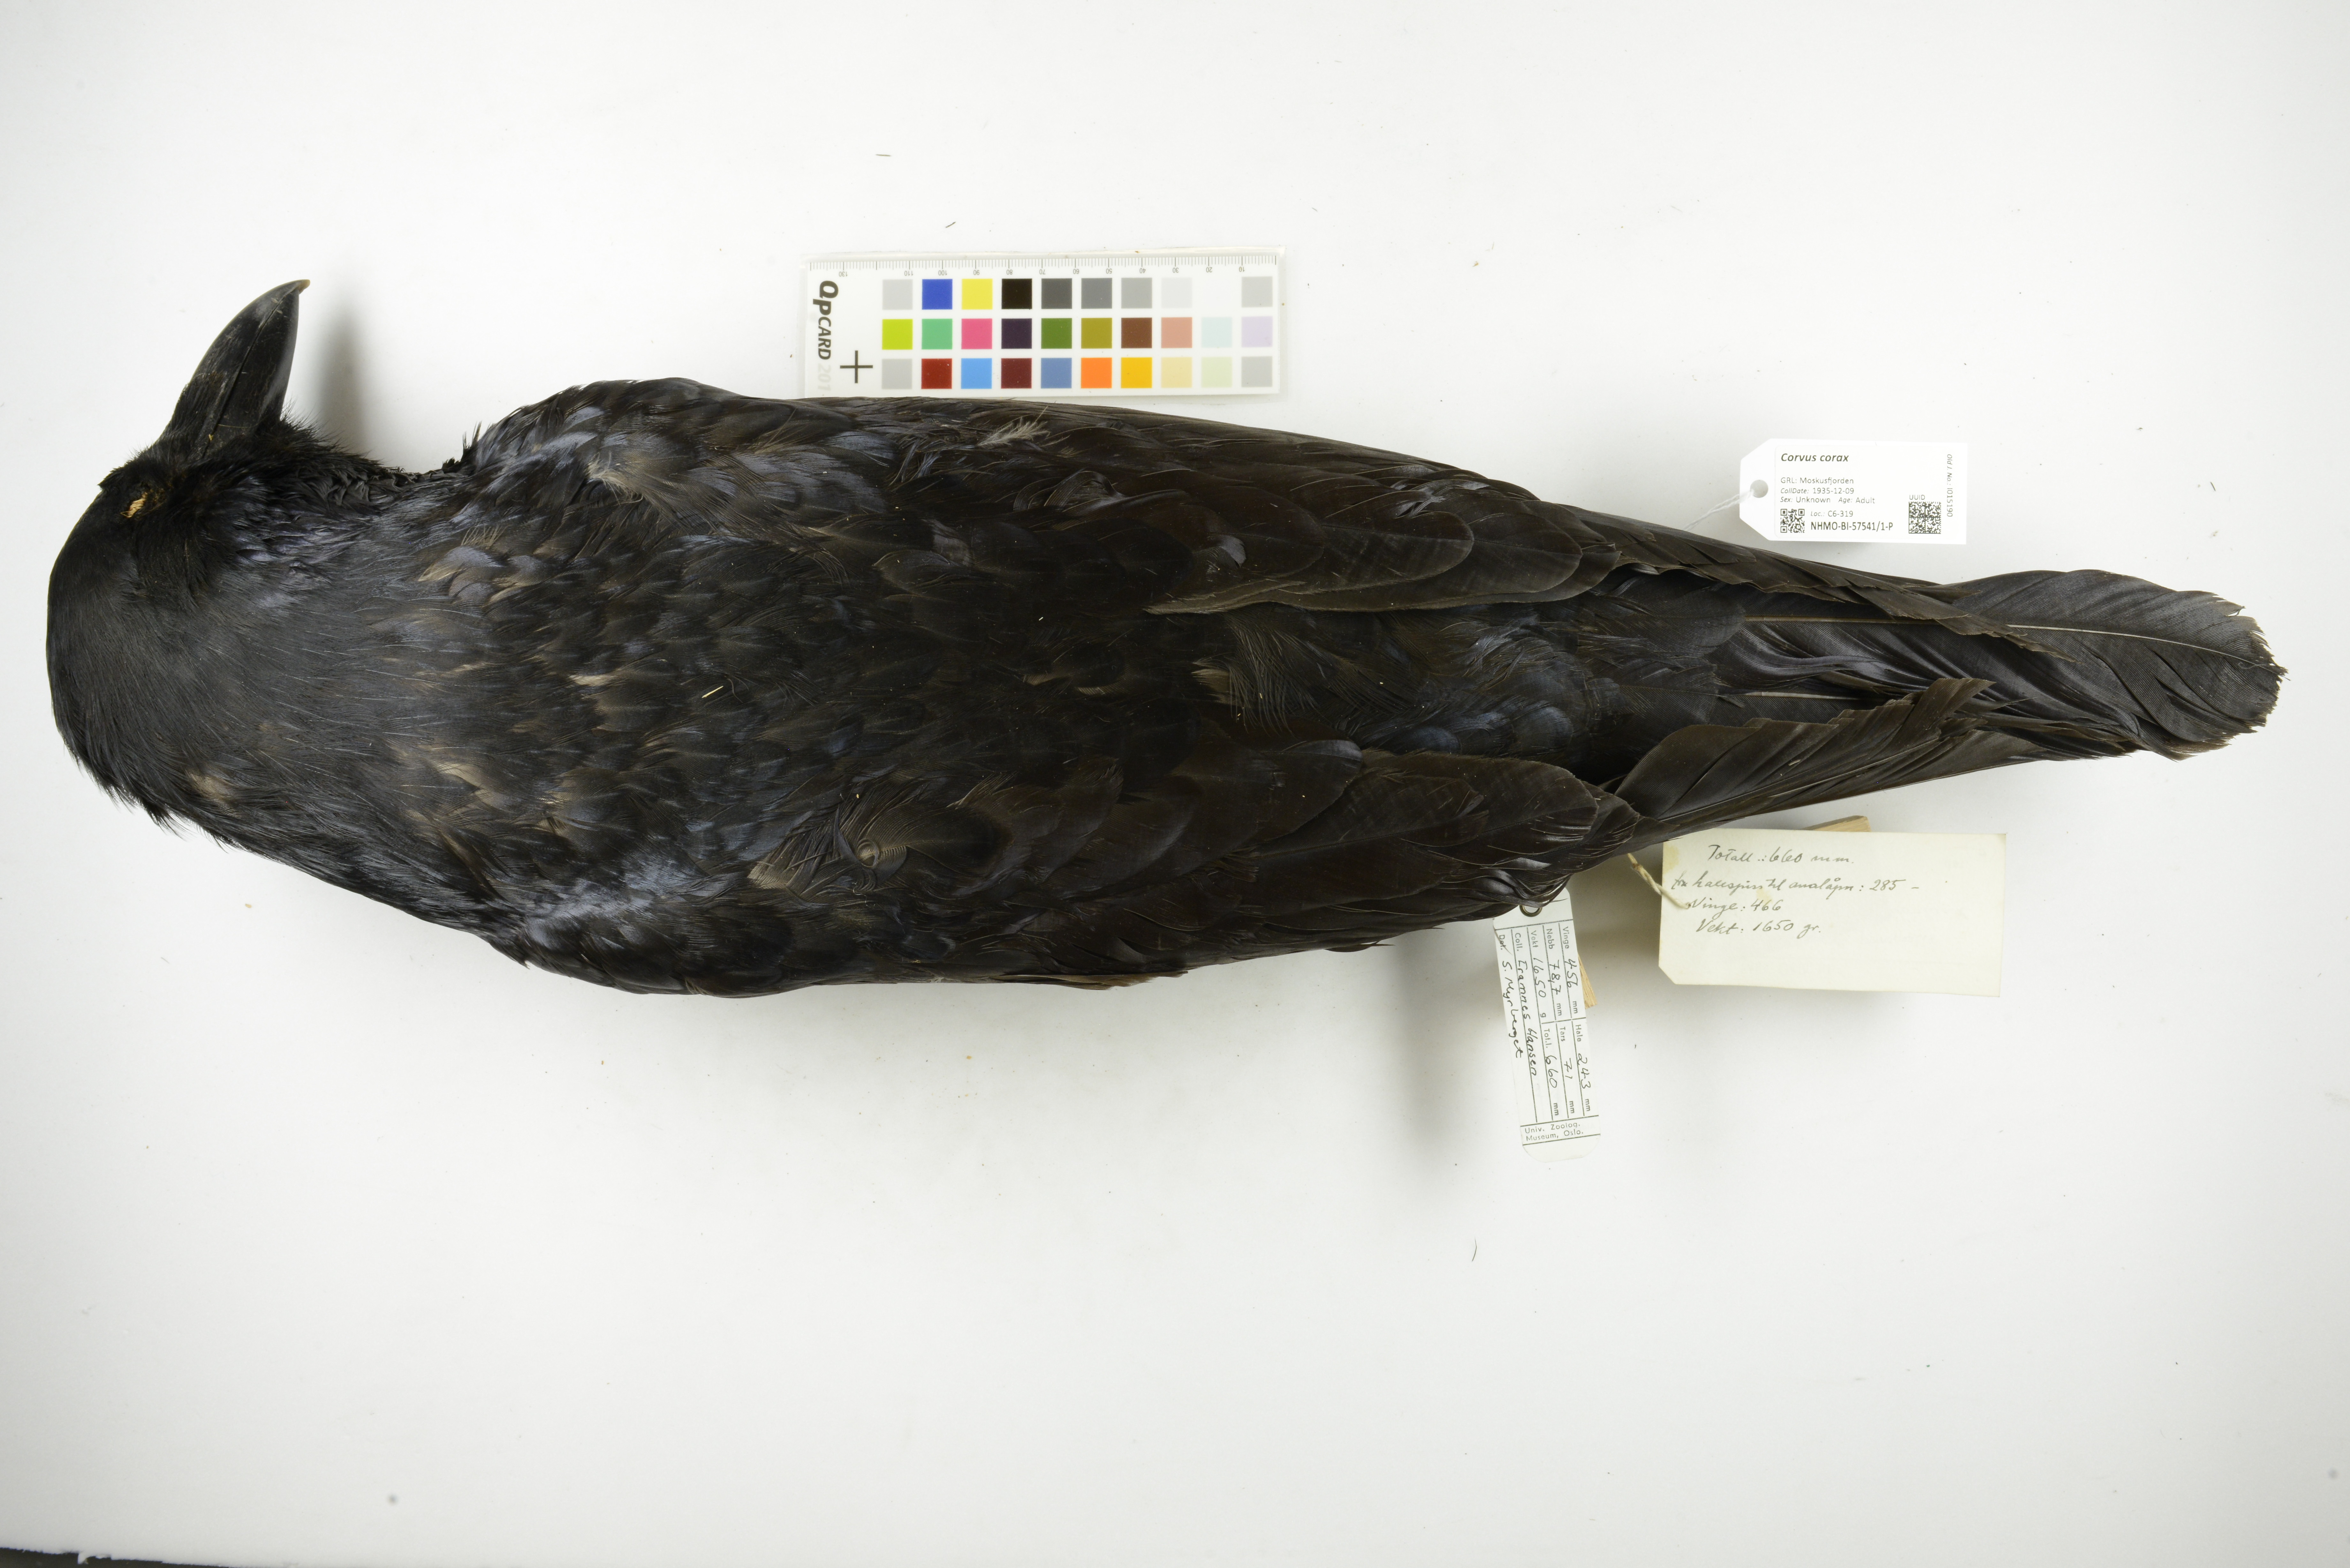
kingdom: Animalia
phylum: Chordata
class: Aves
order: Passeriformes
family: Corvidae
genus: Corvus
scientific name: Corvus corax
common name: Common raven
